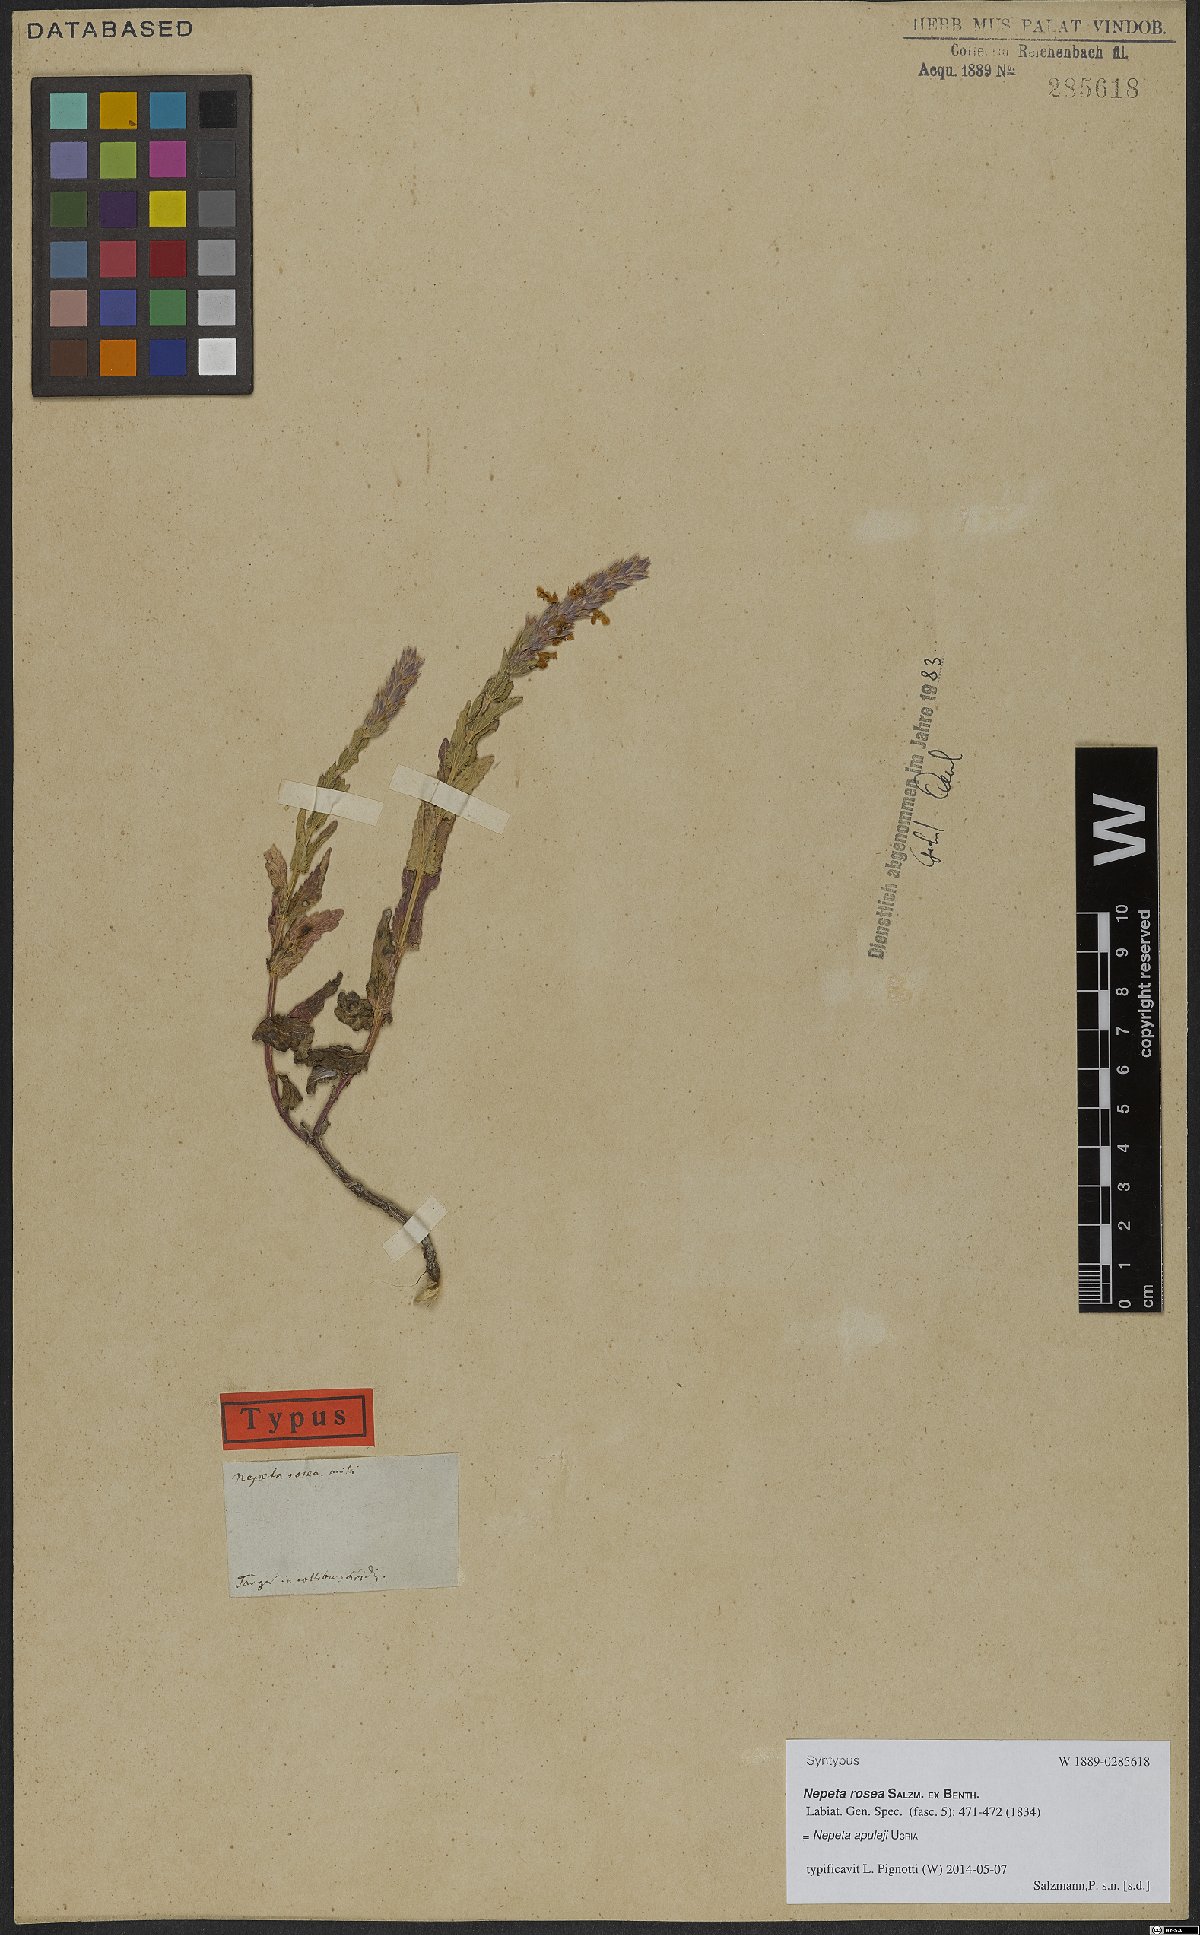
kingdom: Plantae
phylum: Tracheophyta
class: Magnoliopsida
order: Lamiales
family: Lamiaceae
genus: Nepeta
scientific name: Nepeta apuleji
